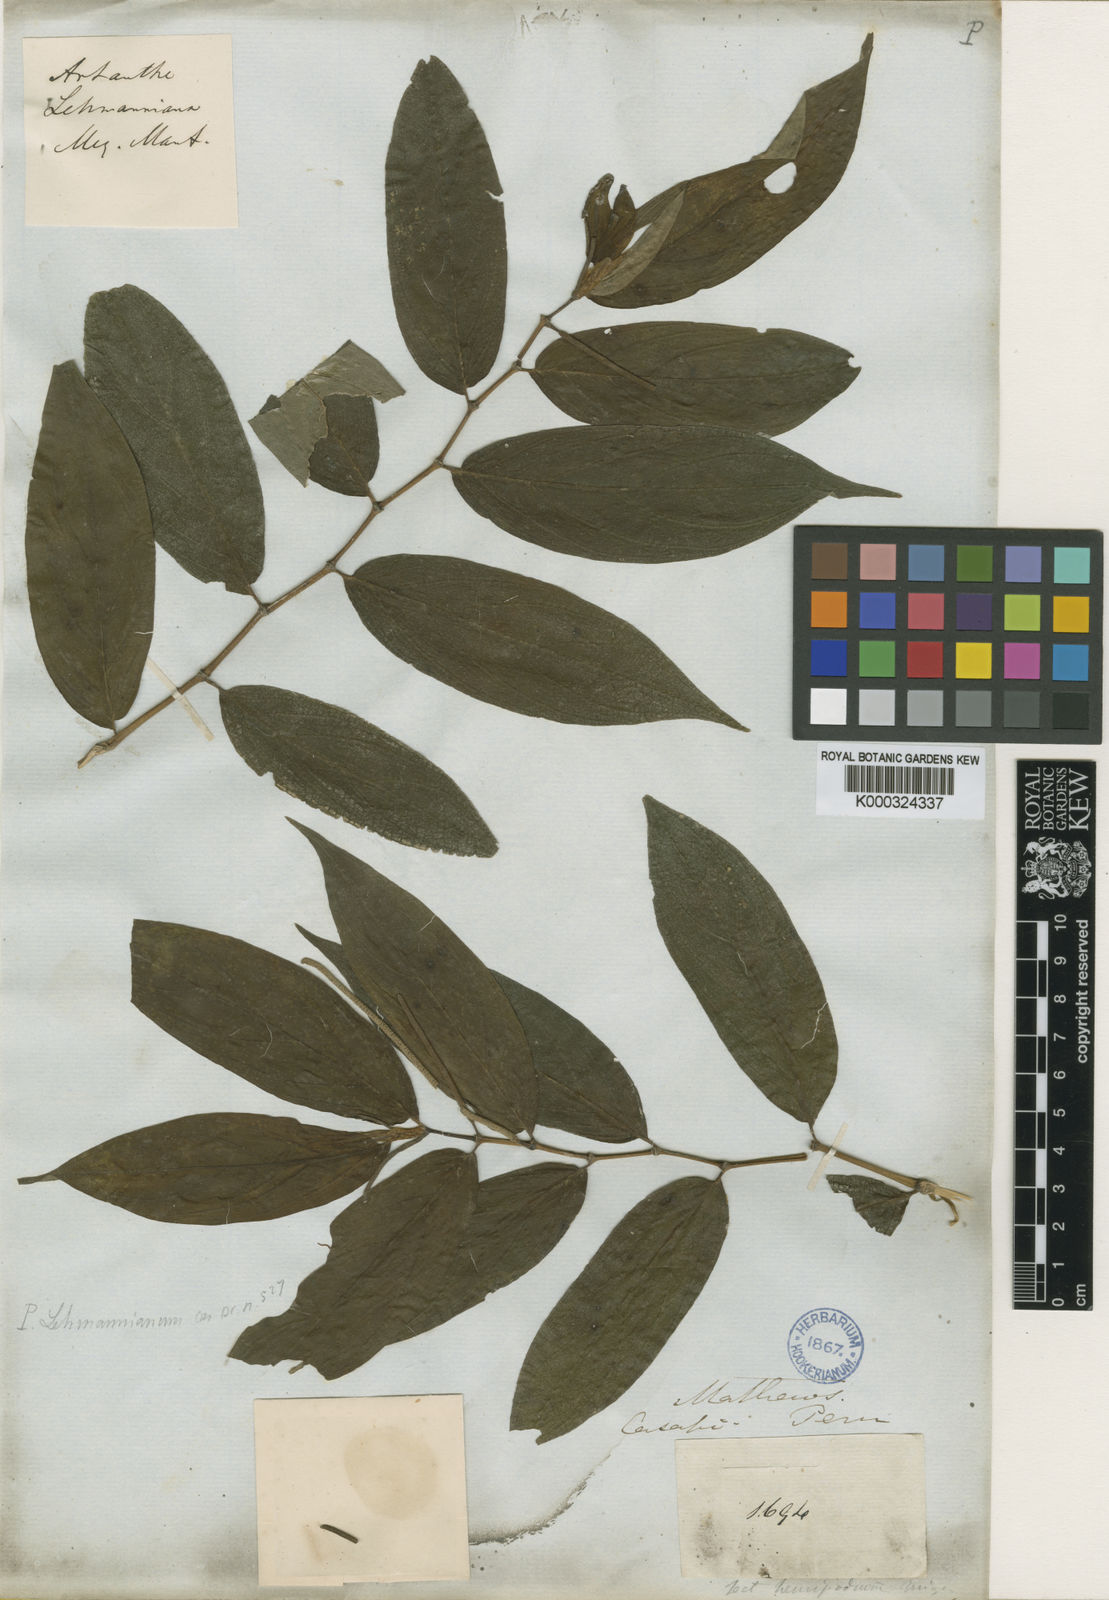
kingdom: Plantae
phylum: Tracheophyta
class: Magnoliopsida
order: Piperales
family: Piperaceae
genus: Piper
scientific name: Piper lehmannianum
